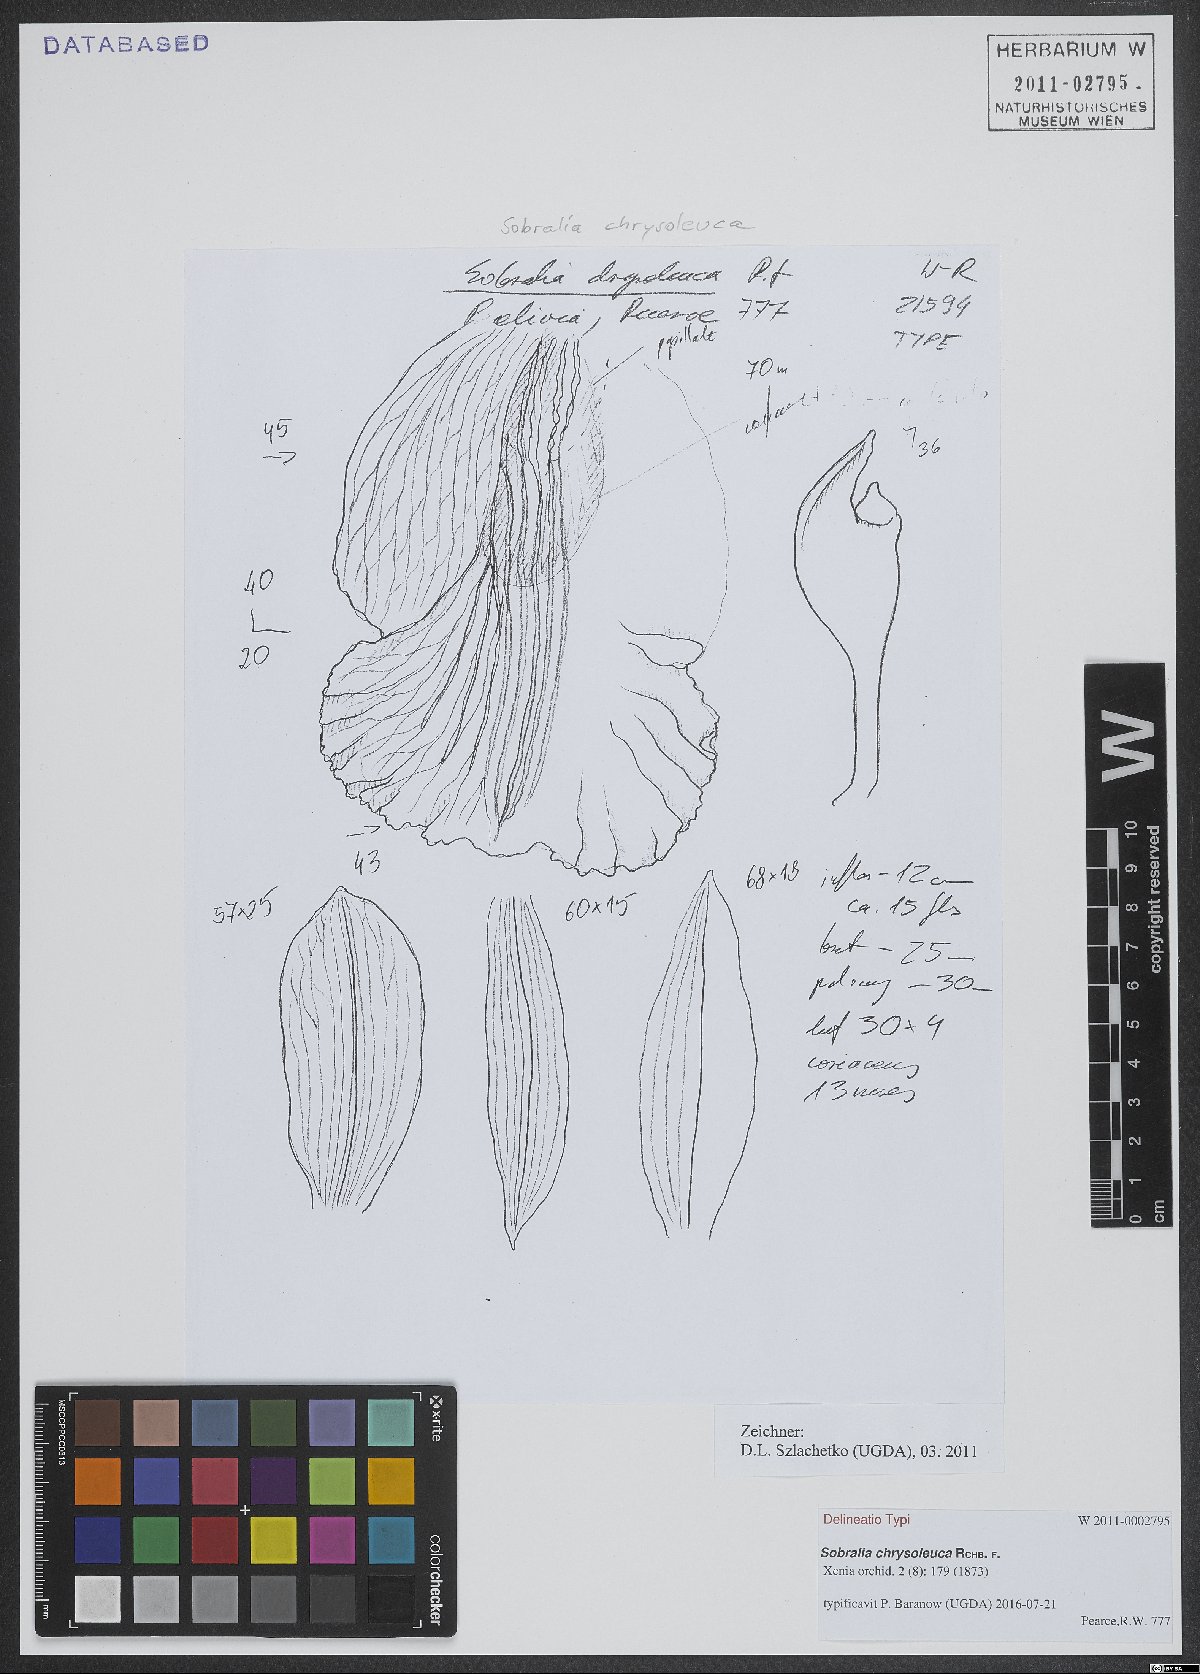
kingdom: Plantae
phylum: Tracheophyta
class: Liliopsida
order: Asparagales
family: Orchidaceae
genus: Sobralia
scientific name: Sobralia chrysoleuca
